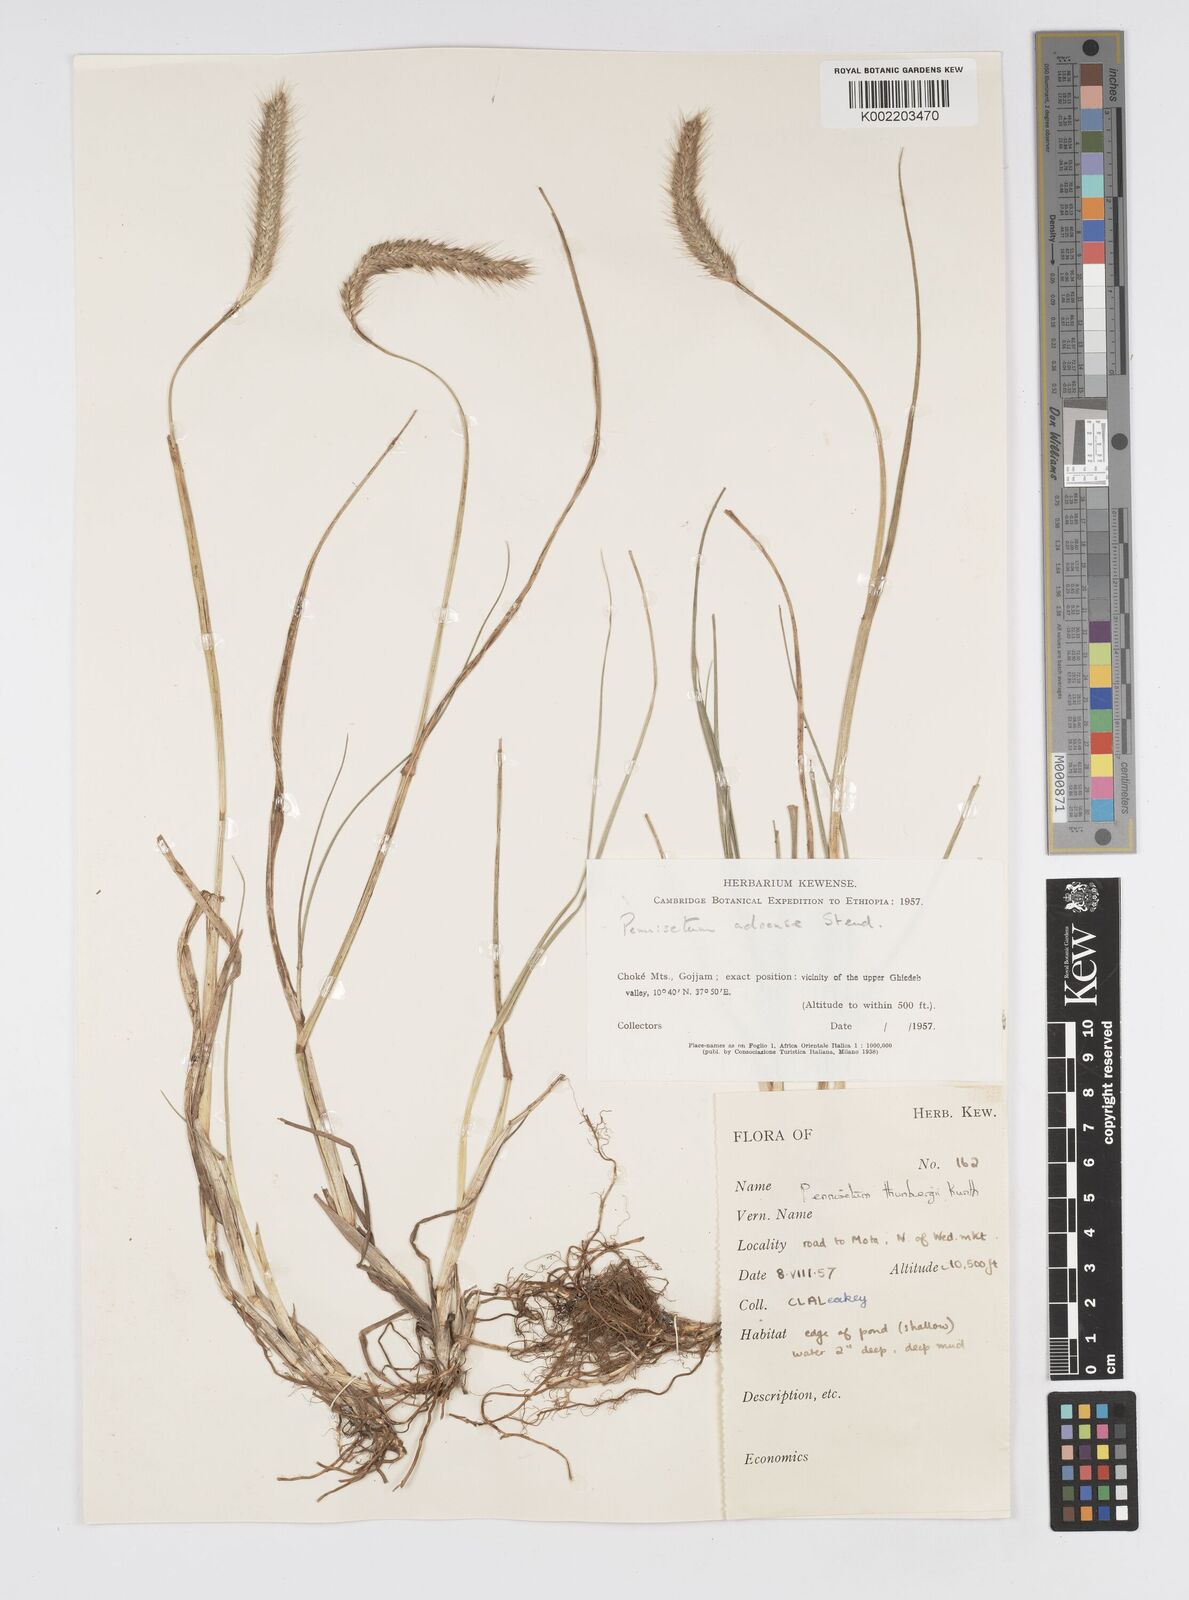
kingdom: Plantae
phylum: Tracheophyta
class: Liliopsida
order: Poales
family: Poaceae
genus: Cenchrus
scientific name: Cenchrus geniculatus
